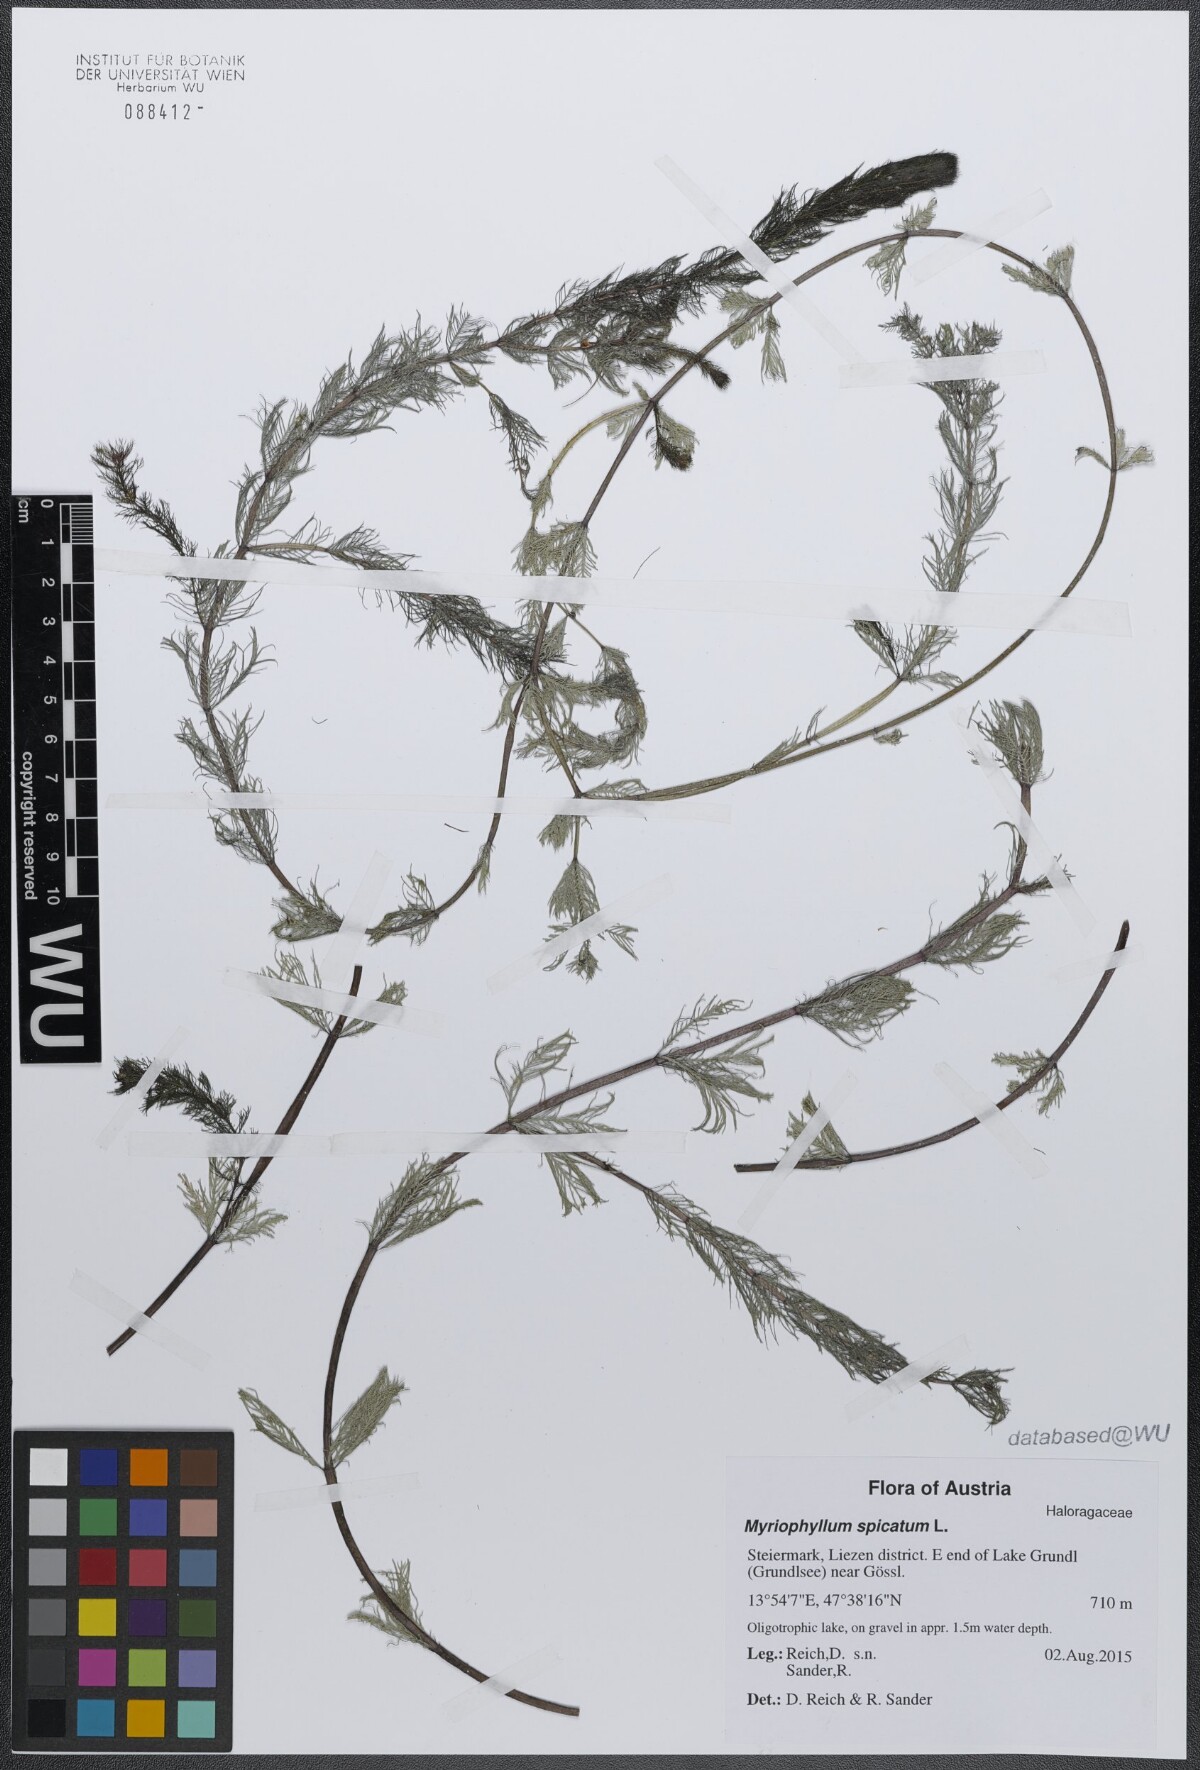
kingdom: Plantae
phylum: Tracheophyta
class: Magnoliopsida
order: Saxifragales
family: Haloragaceae
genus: Myriophyllum
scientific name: Myriophyllum spicatum
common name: Spiked water-milfoil
